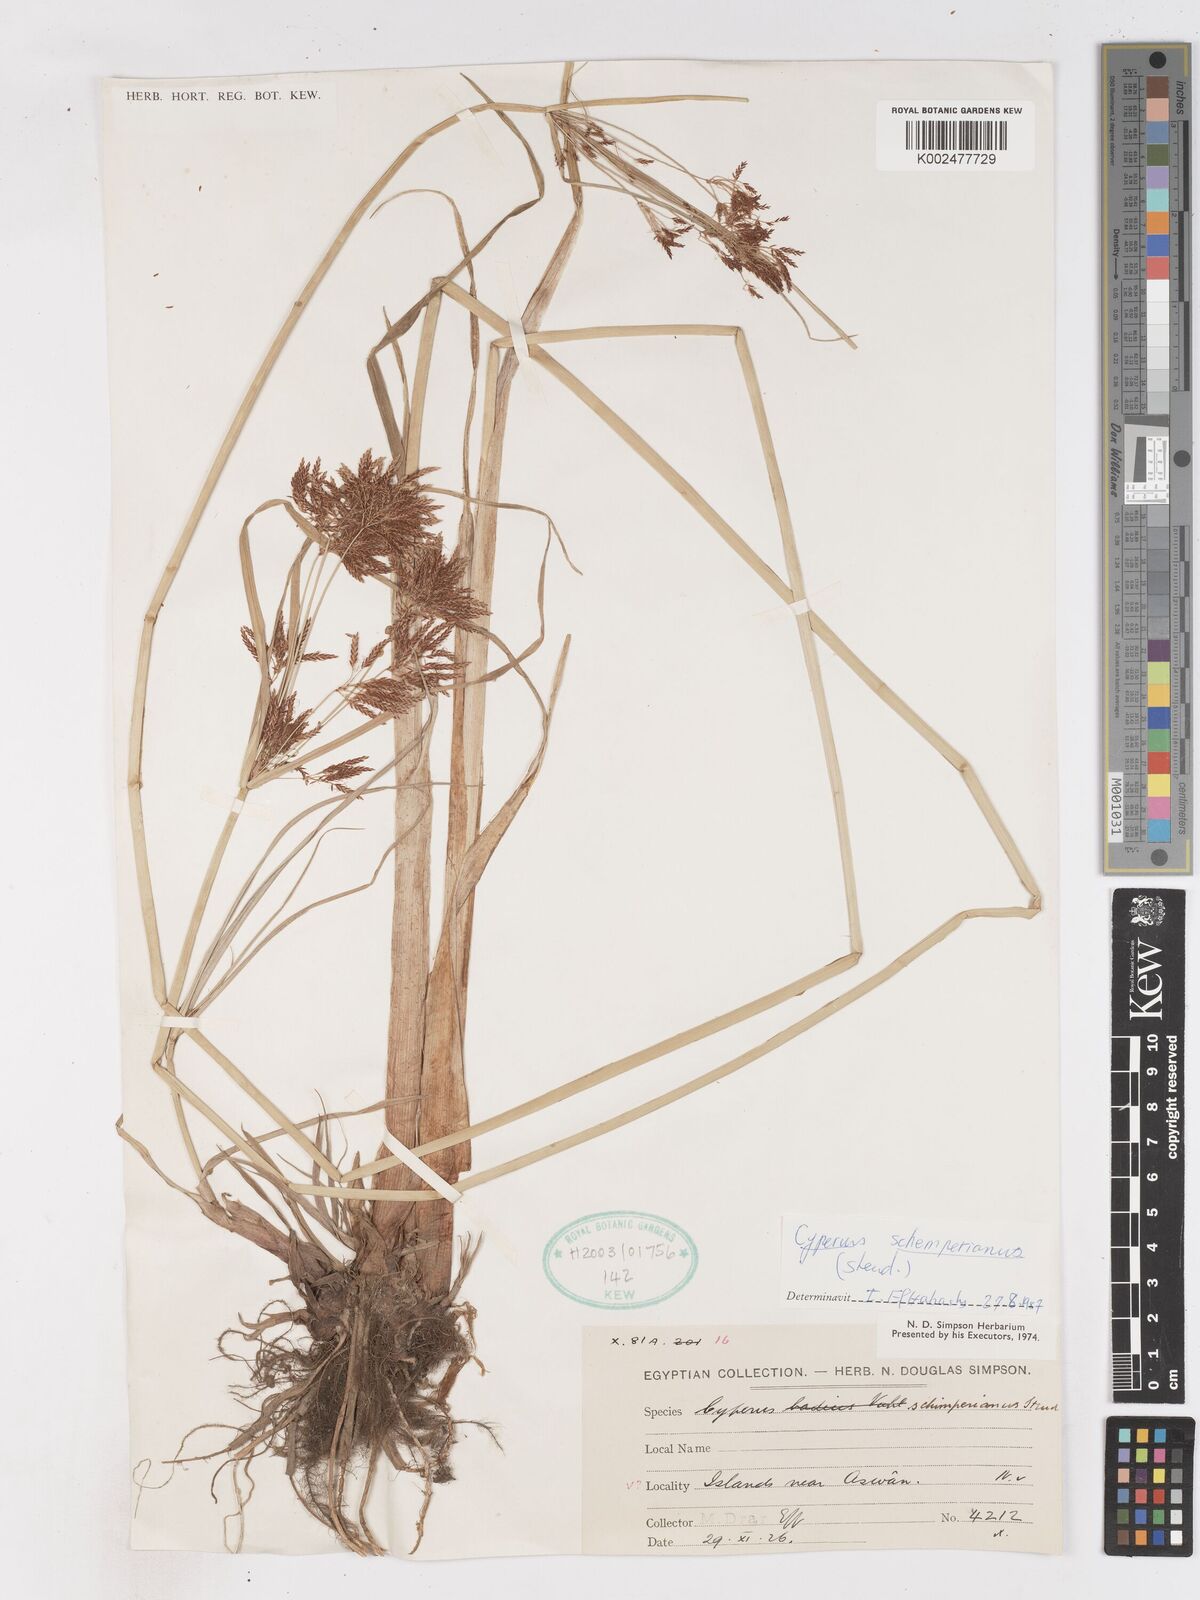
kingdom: Plantae
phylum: Tracheophyta
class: Liliopsida
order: Poales
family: Cyperaceae
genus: Cyperus
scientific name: Cyperus schimperianus
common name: Schimper flatsedge
